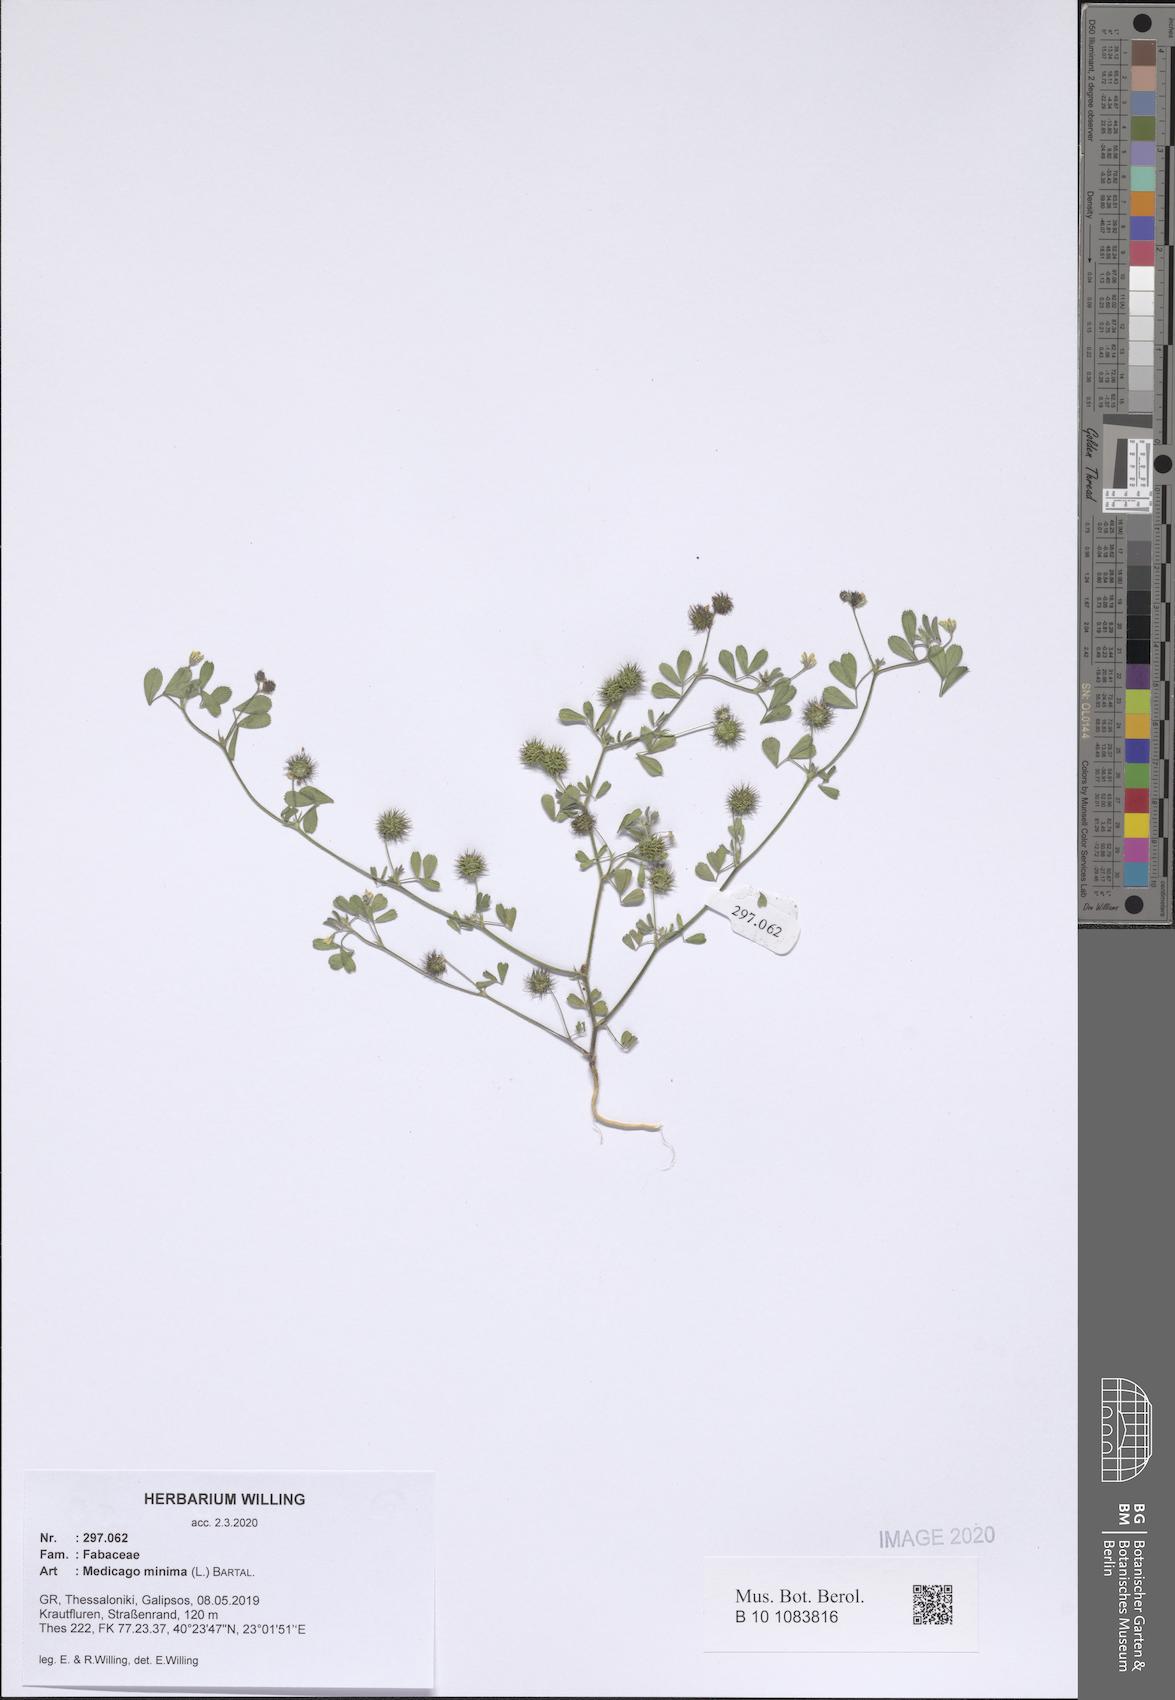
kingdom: Plantae
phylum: Tracheophyta
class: Magnoliopsida
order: Fabales
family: Fabaceae
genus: Medicago
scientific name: Medicago minima
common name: Little bur-clover
